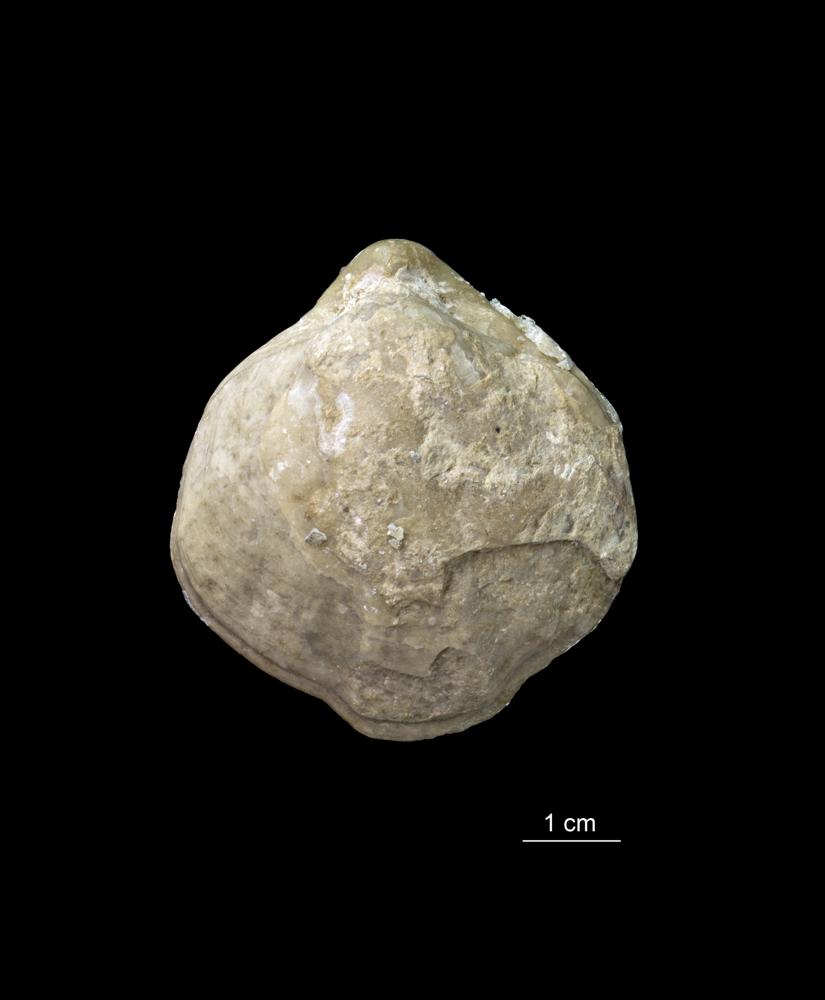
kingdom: Animalia
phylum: Brachiopoda
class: Rhynchonellata
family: Pentameridae
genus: Pentamerus
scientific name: Pentamerus
